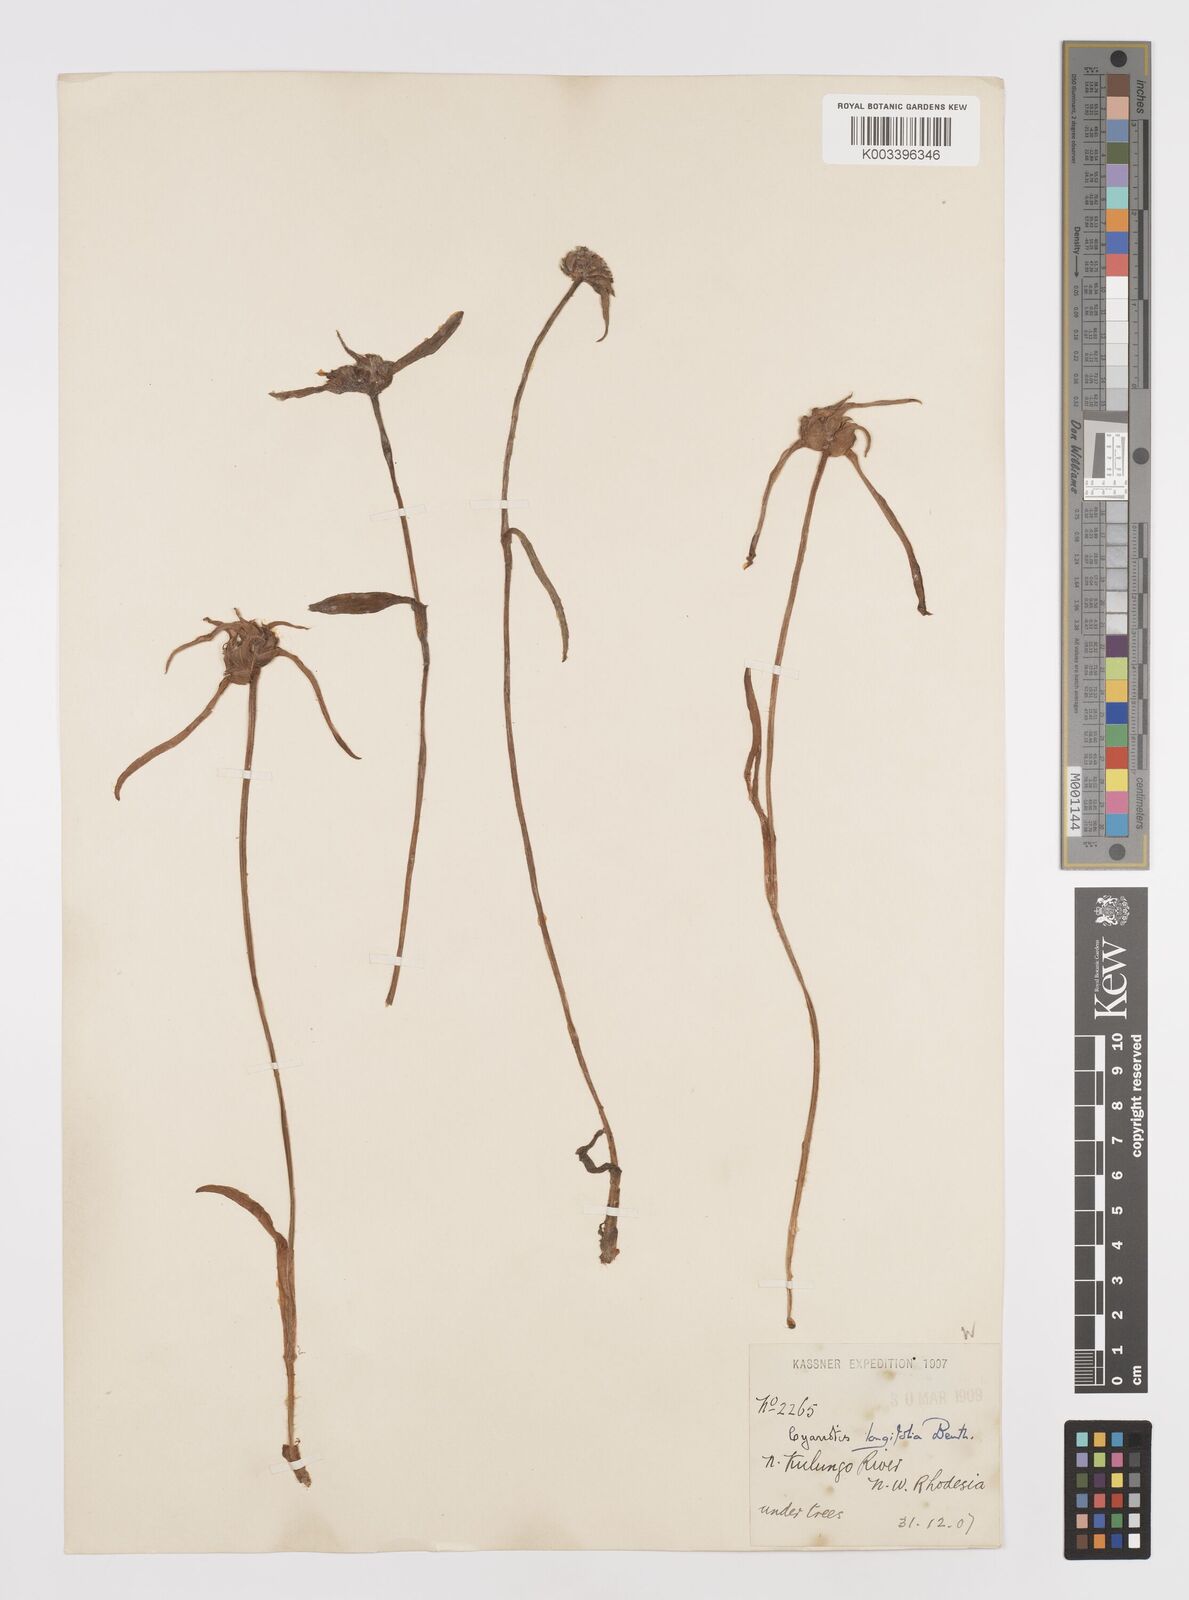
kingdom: Plantae
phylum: Tracheophyta
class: Liliopsida
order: Commelinales
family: Commelinaceae
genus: Cyanotis
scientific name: Cyanotis longifolia
